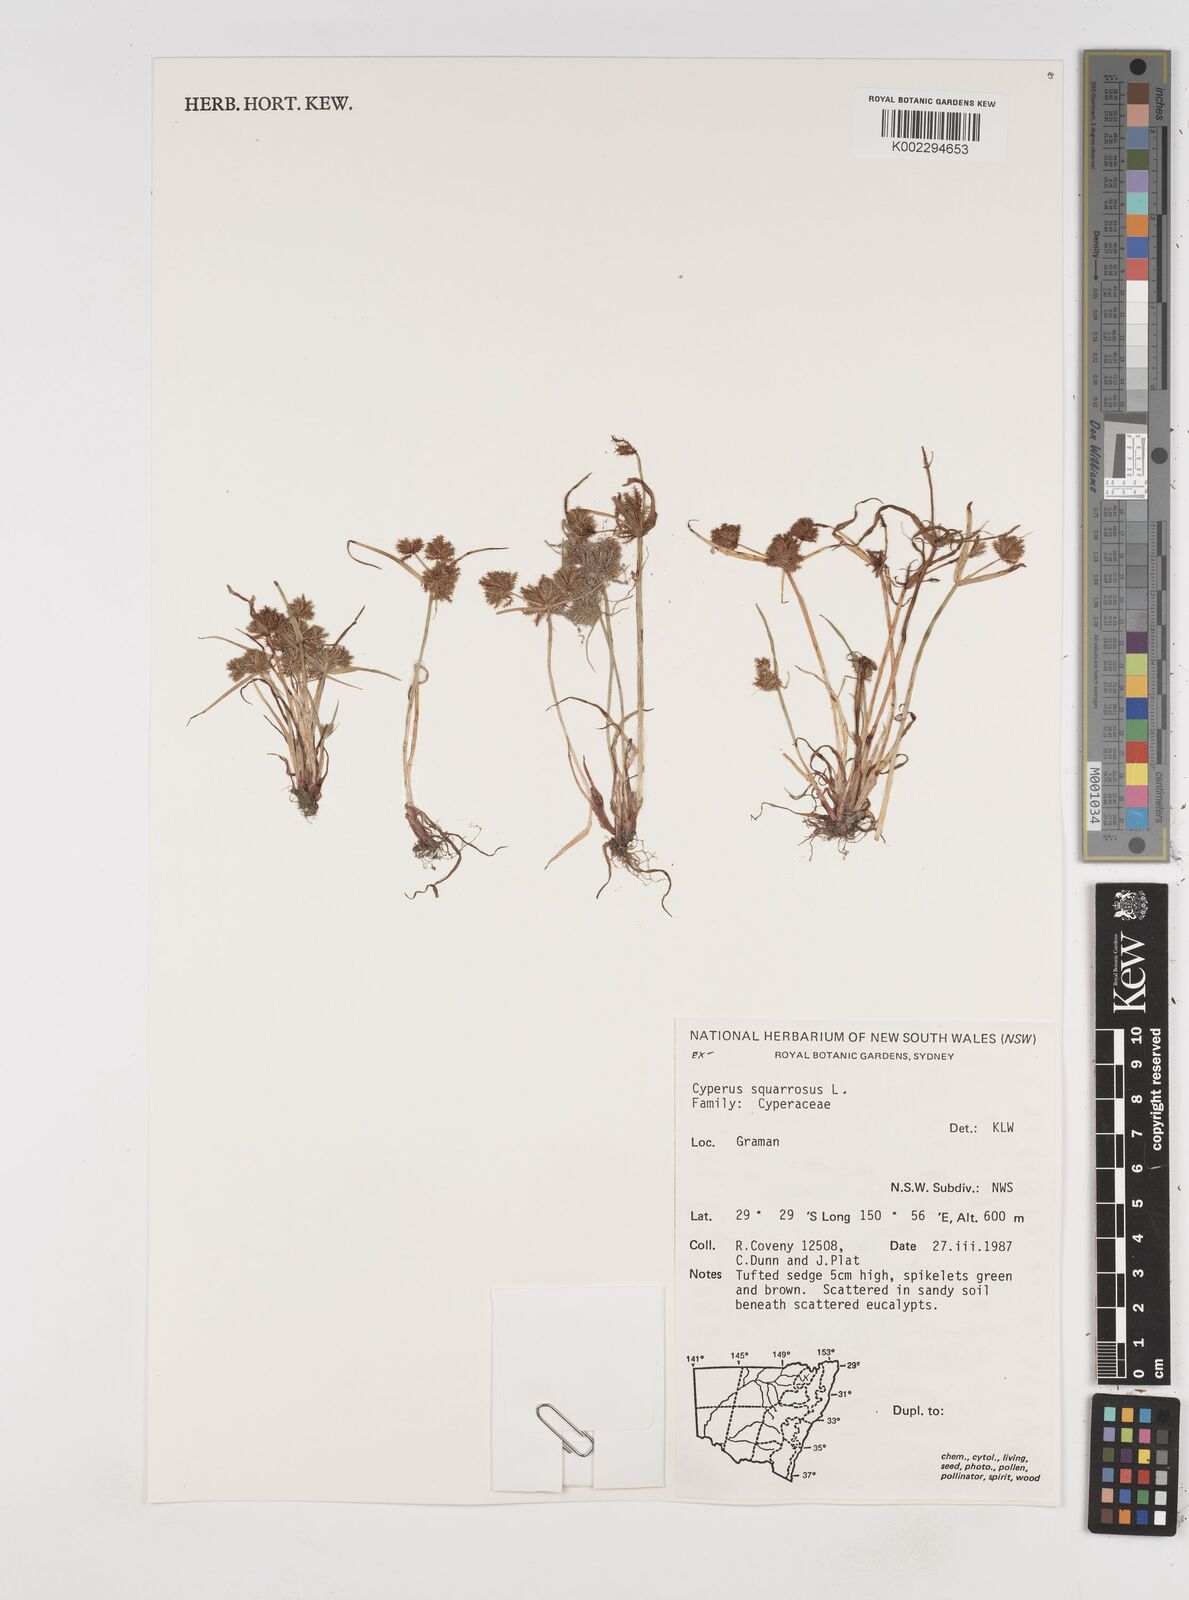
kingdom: Plantae
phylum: Tracheophyta
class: Liliopsida
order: Poales
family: Cyperaceae
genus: Cyperus
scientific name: Cyperus squarrosus
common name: Awned cyperus
